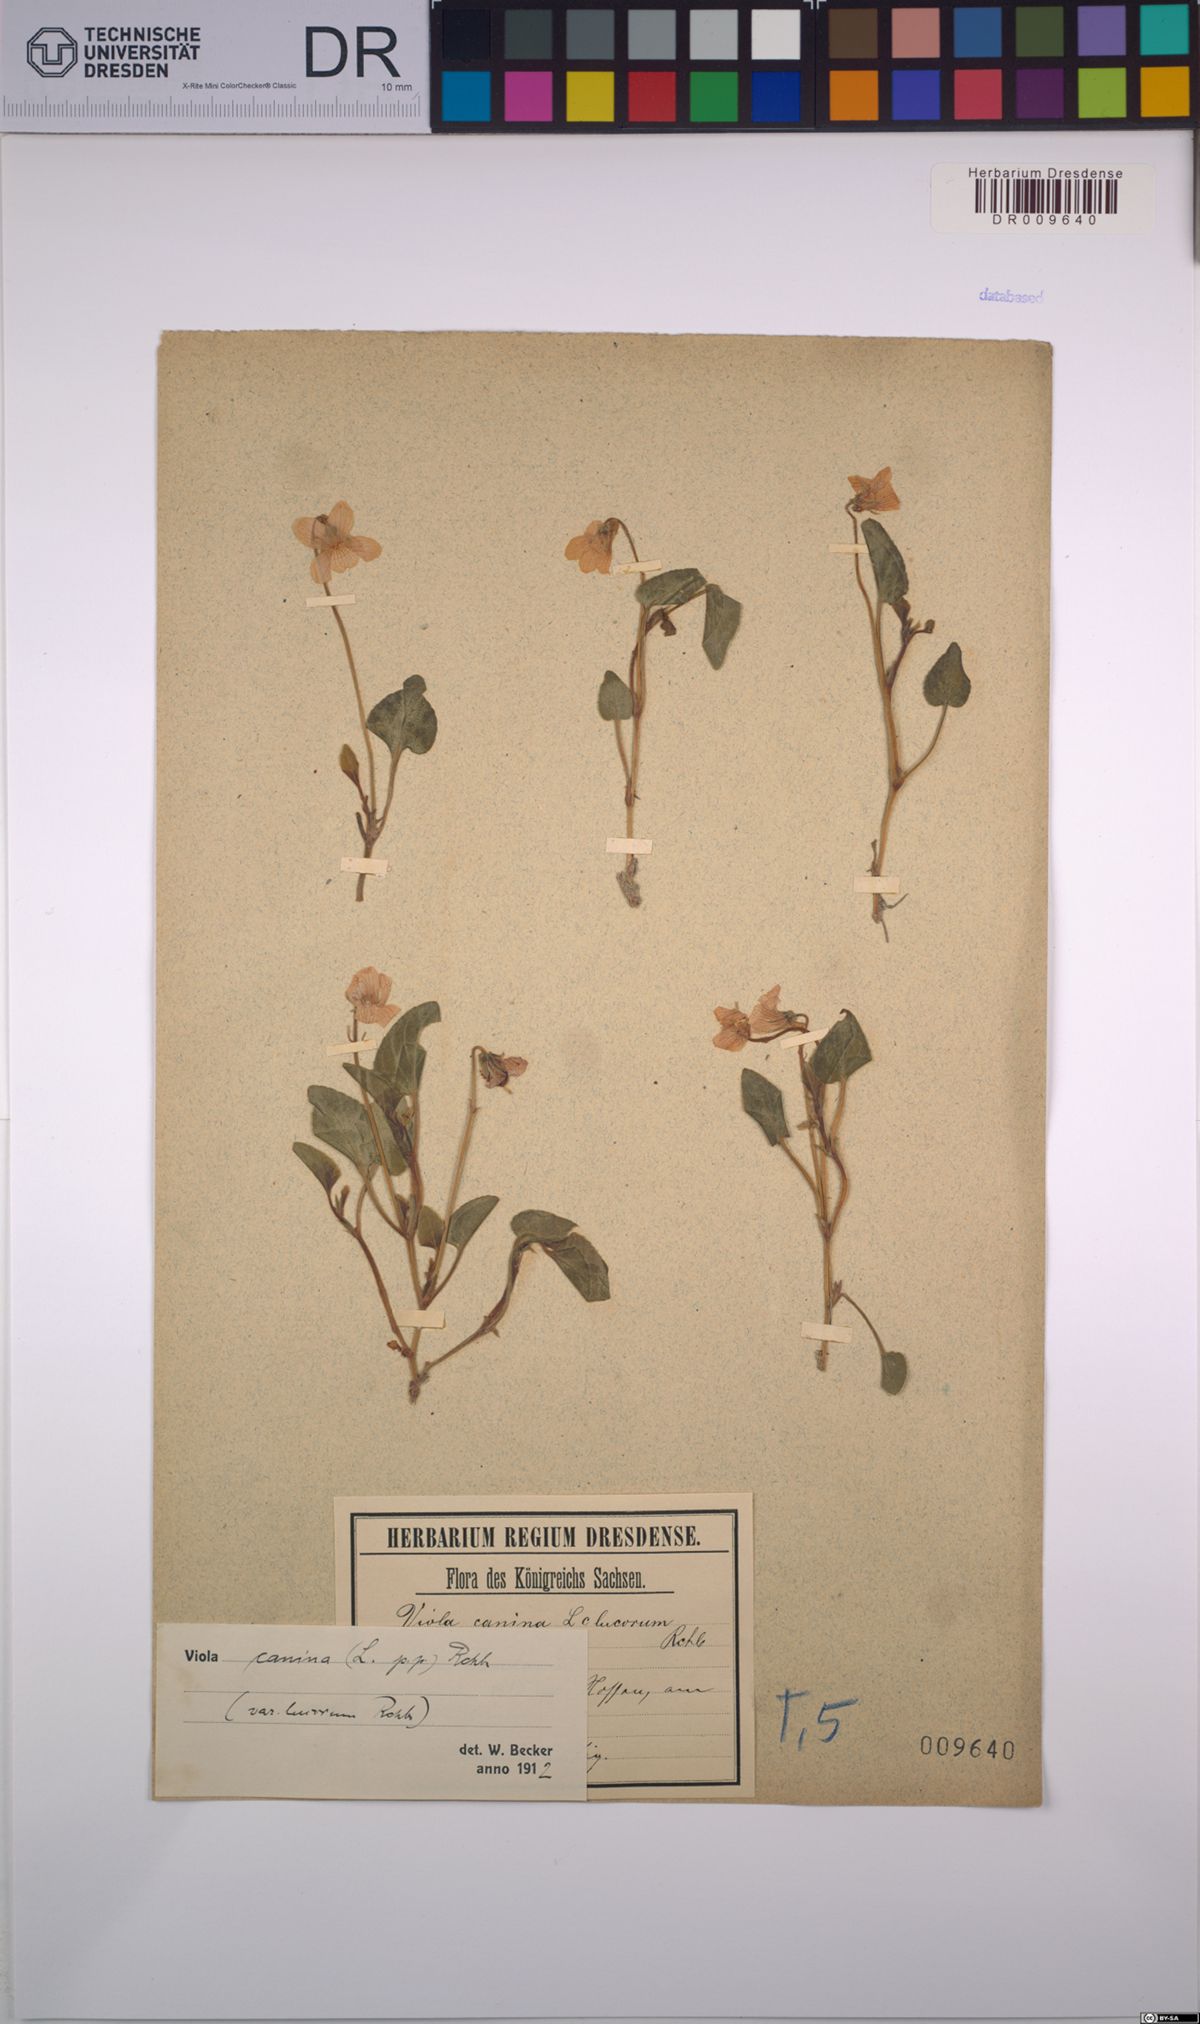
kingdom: Plantae
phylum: Tracheophyta
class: Magnoliopsida
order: Malpighiales
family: Violaceae
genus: Viola
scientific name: Viola canina
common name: Heath dog-violet
